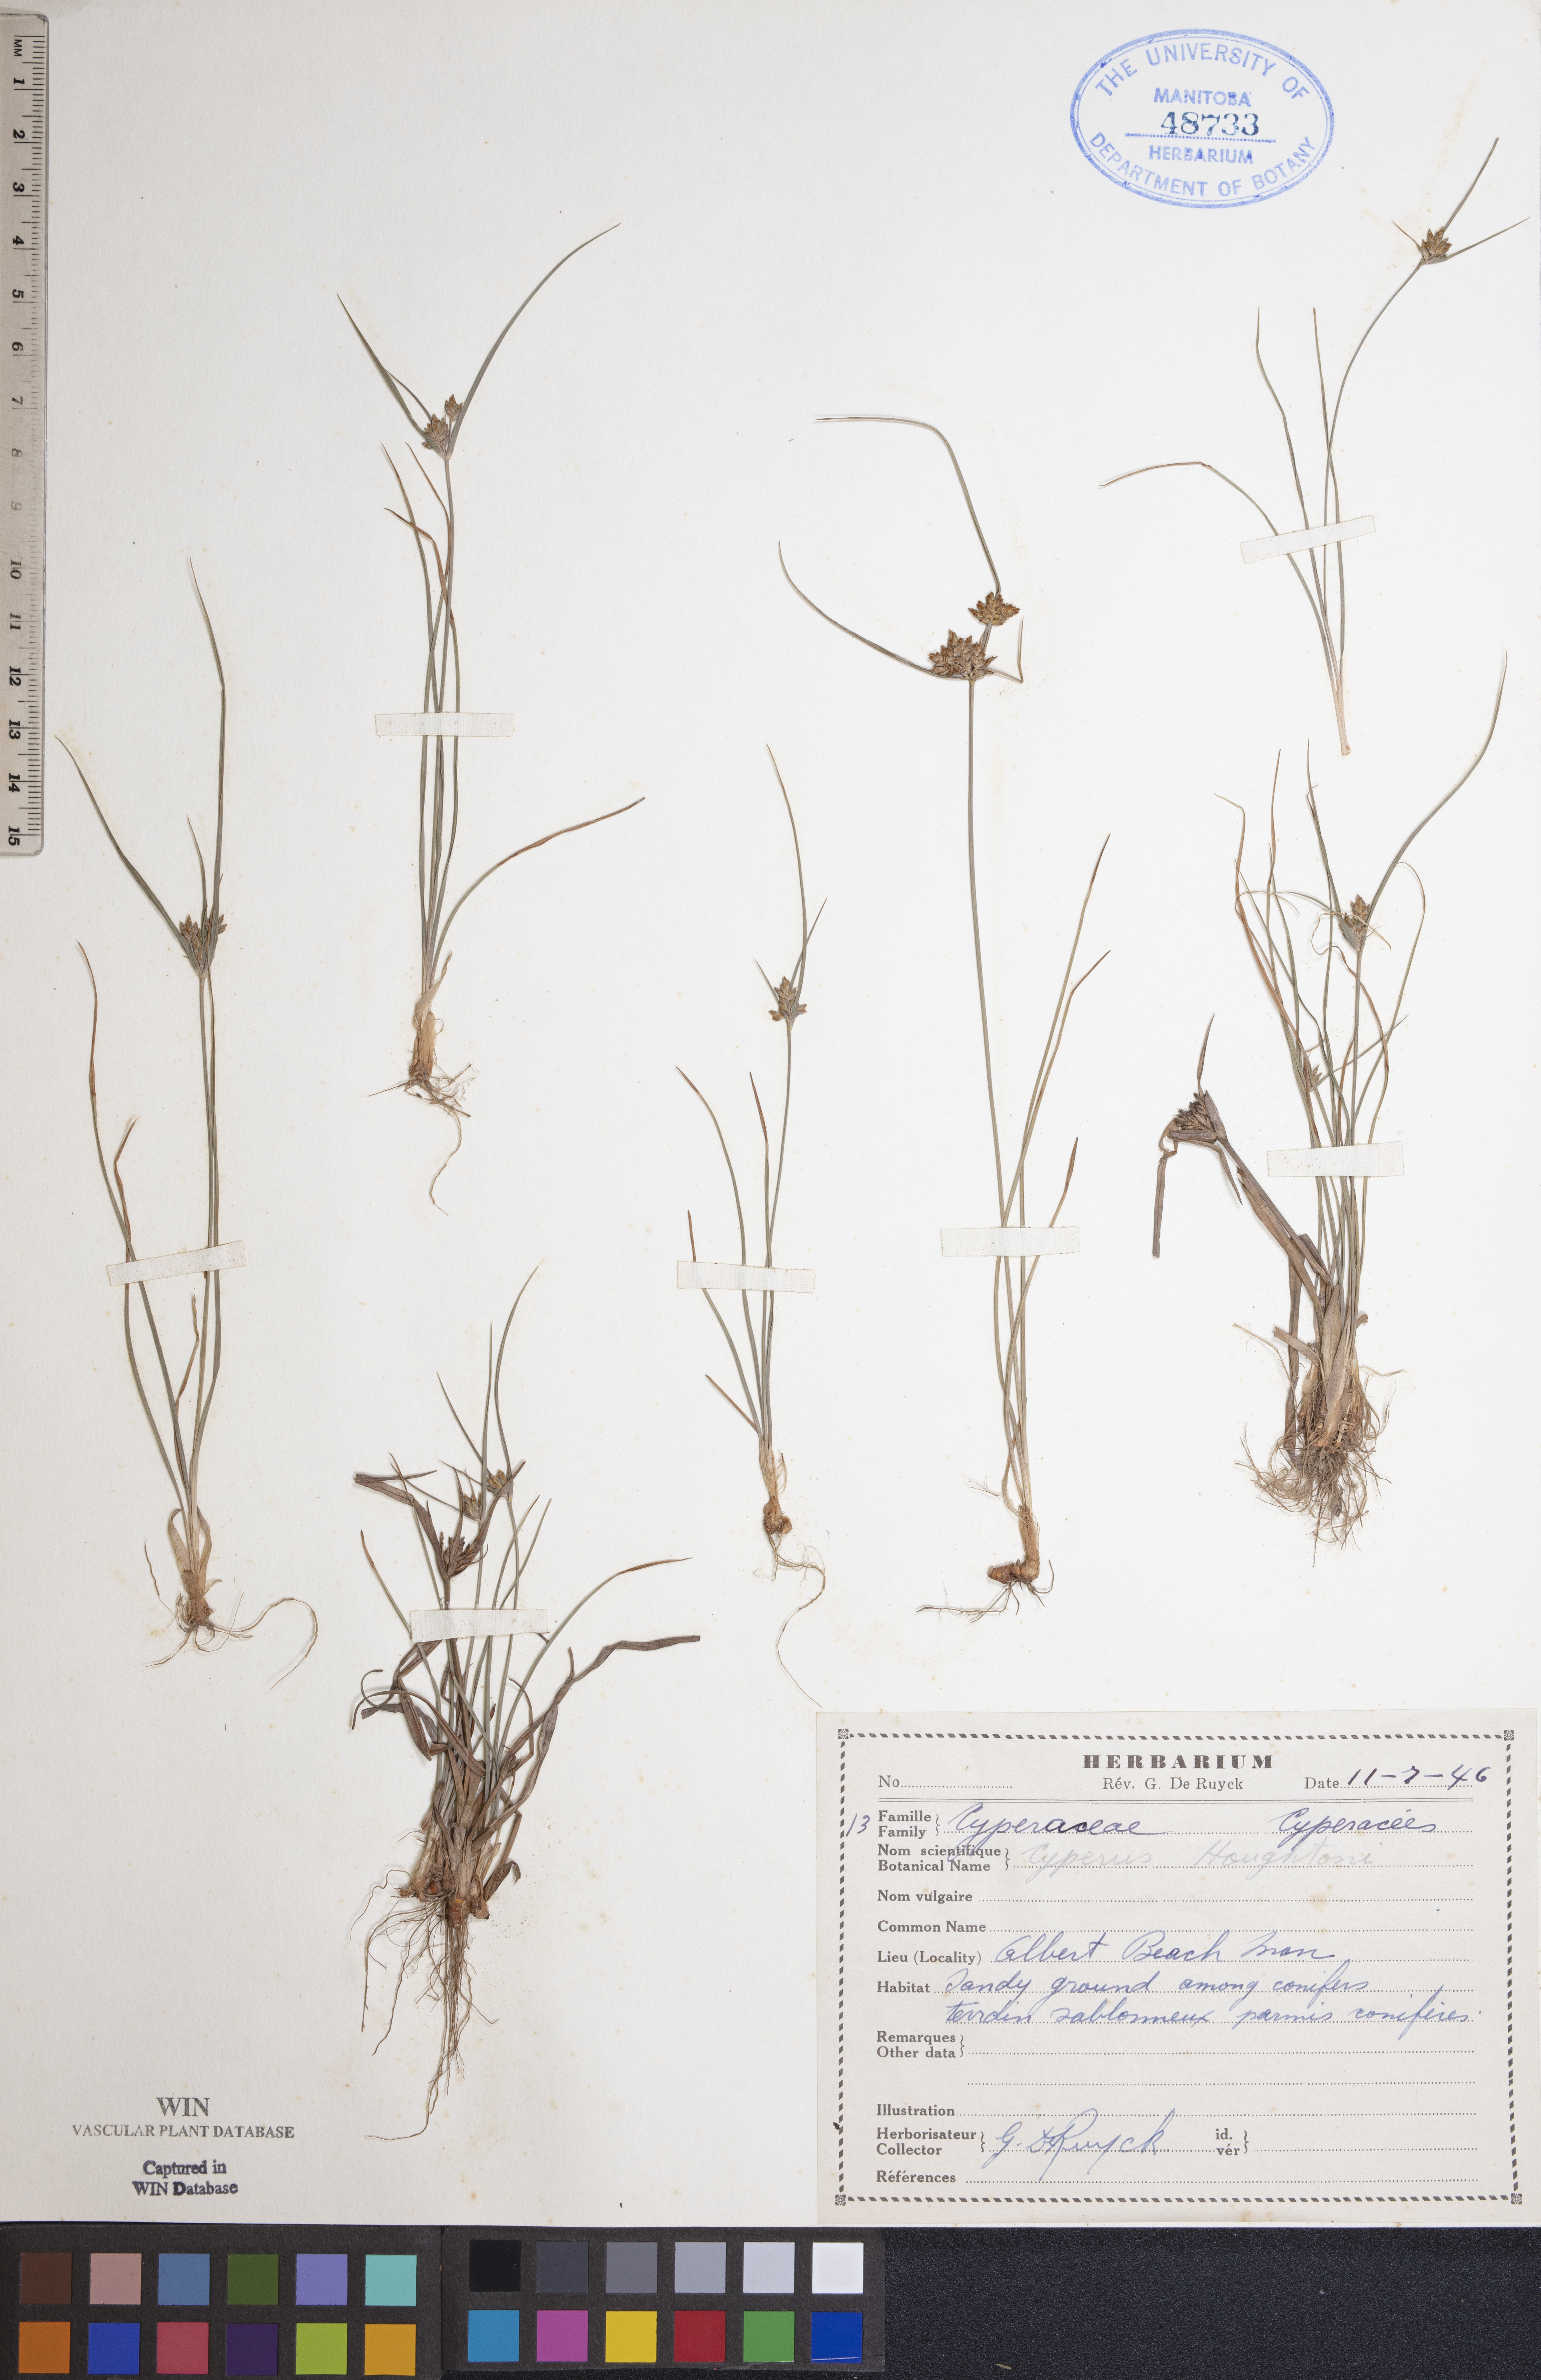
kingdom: Plantae
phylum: Tracheophyta
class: Liliopsida
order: Poales
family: Cyperaceae
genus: Cyperus
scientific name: Cyperus houghtonii
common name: Houghton's cyperus
